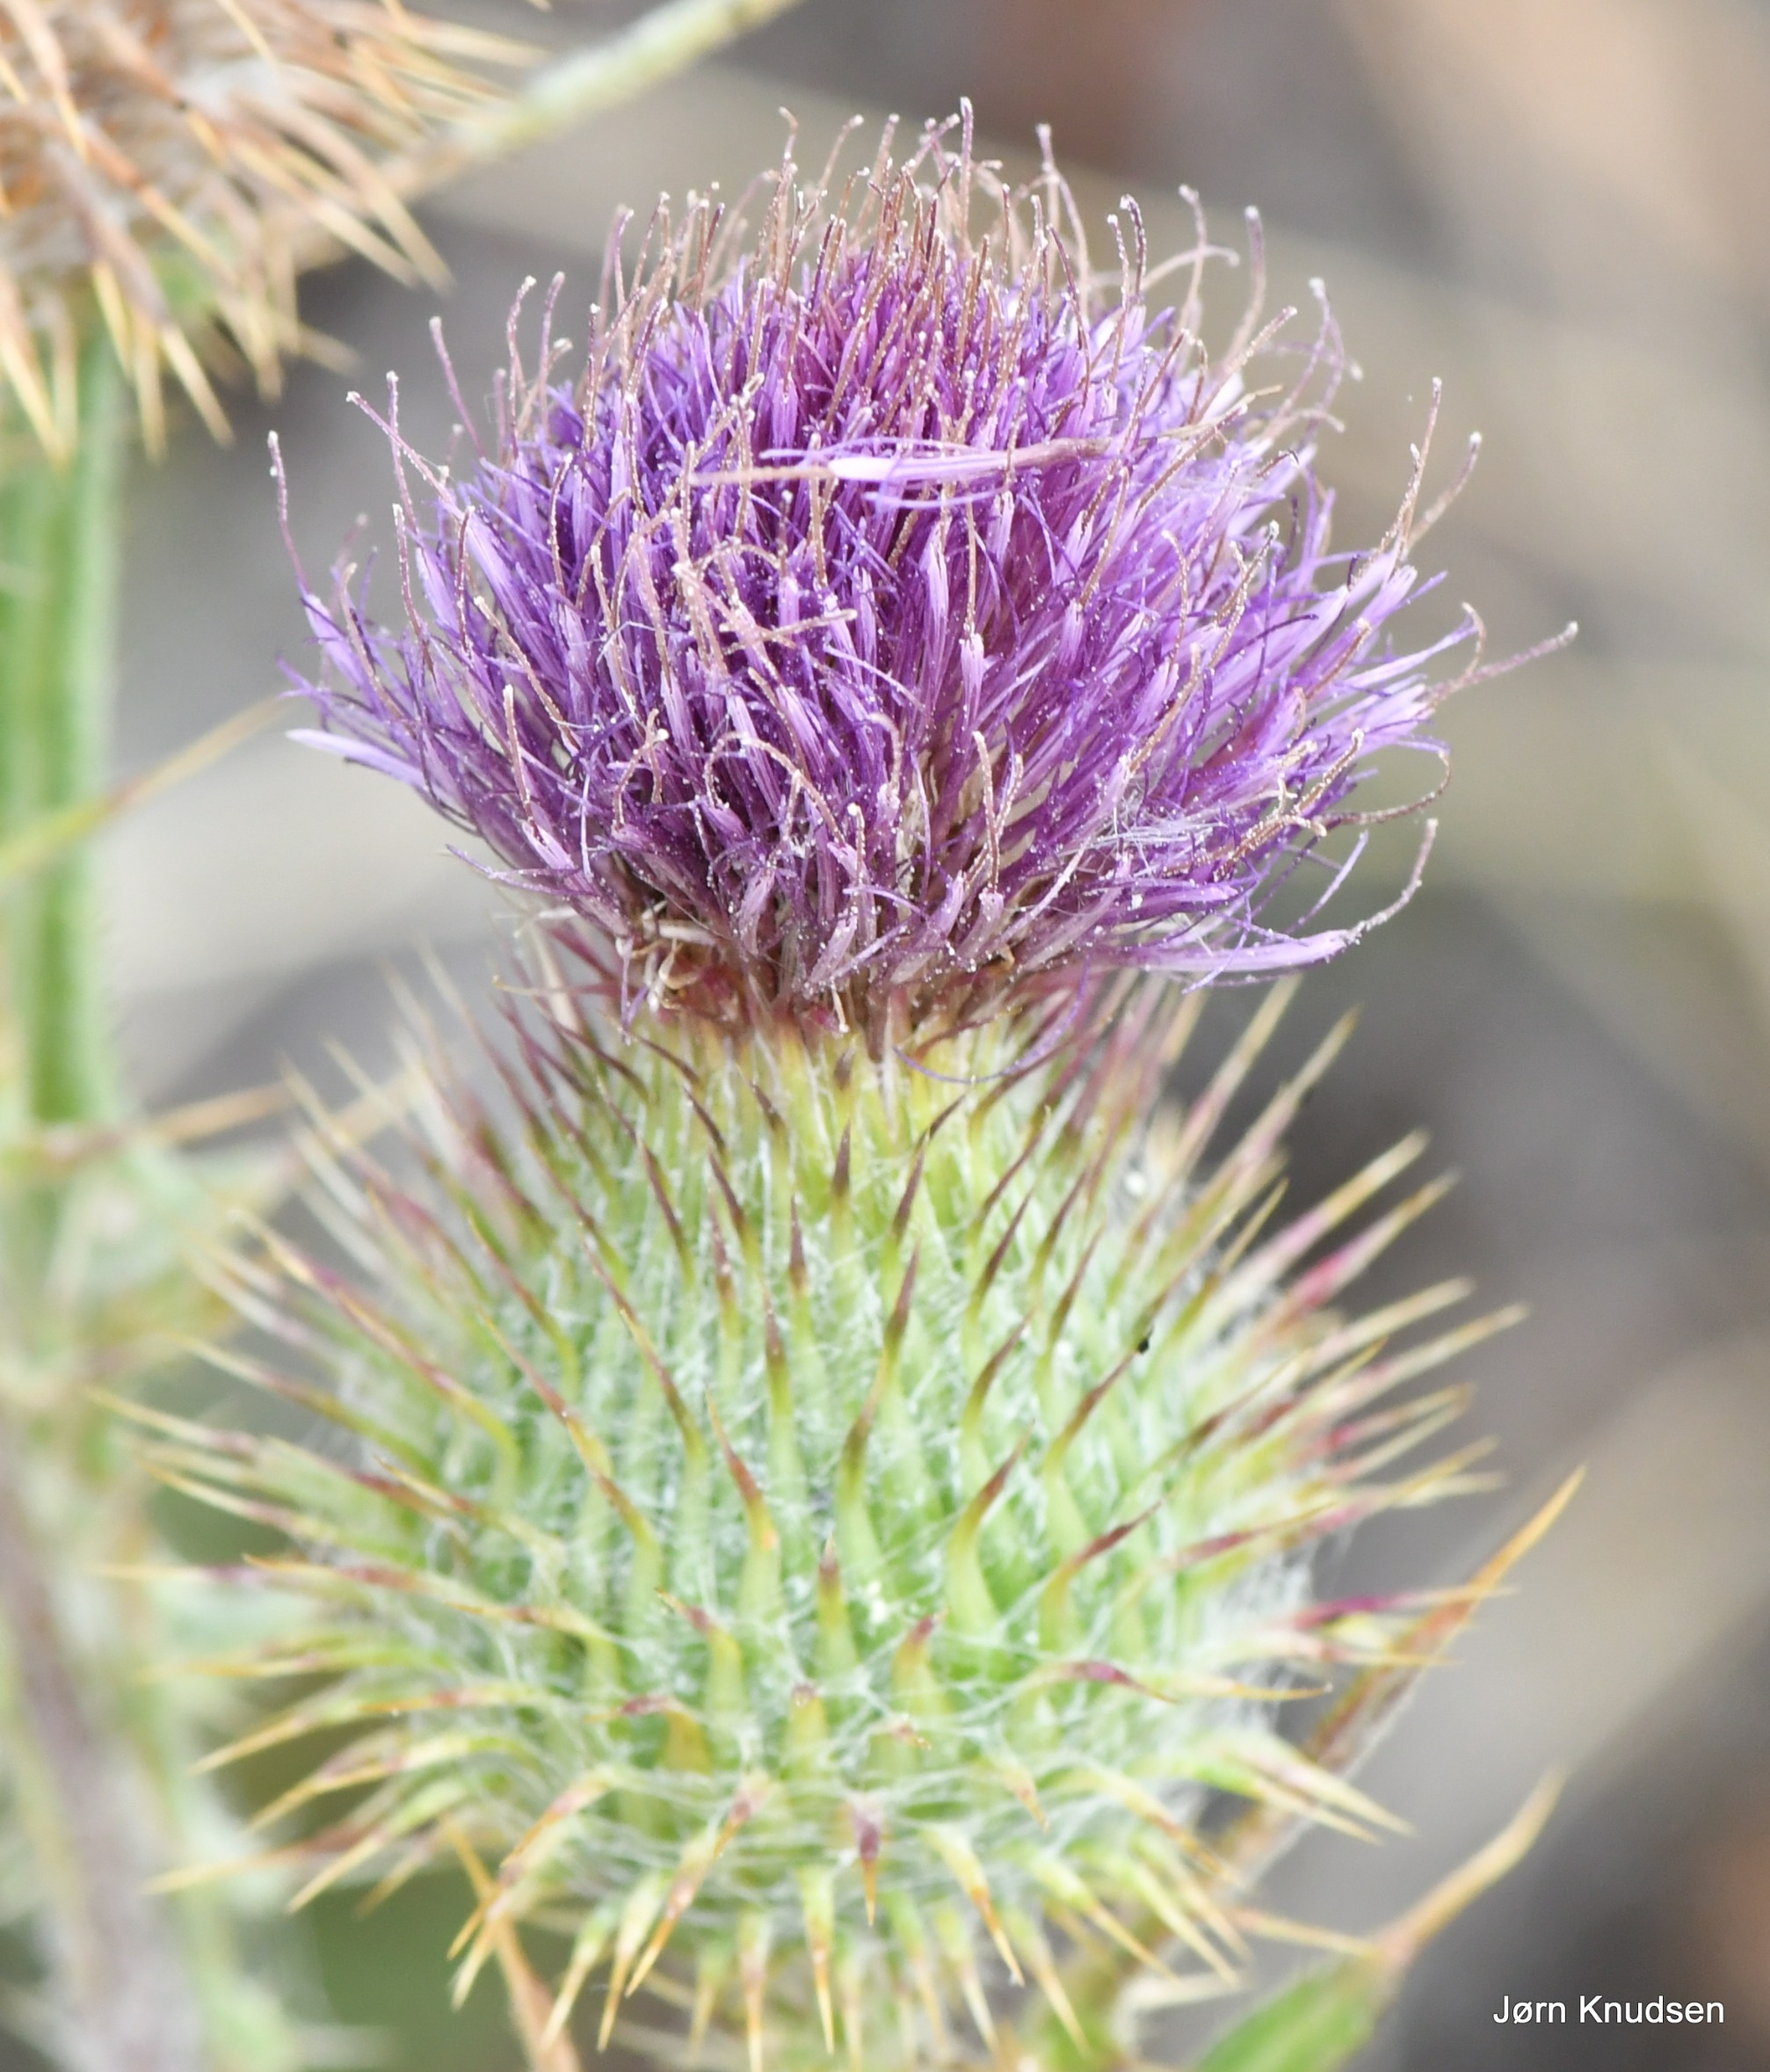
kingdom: Plantae
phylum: Tracheophyta
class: Magnoliopsida
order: Asterales
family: Asteraceae
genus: Cirsium
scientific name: Cirsium vulgare
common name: Horse-tidsel
